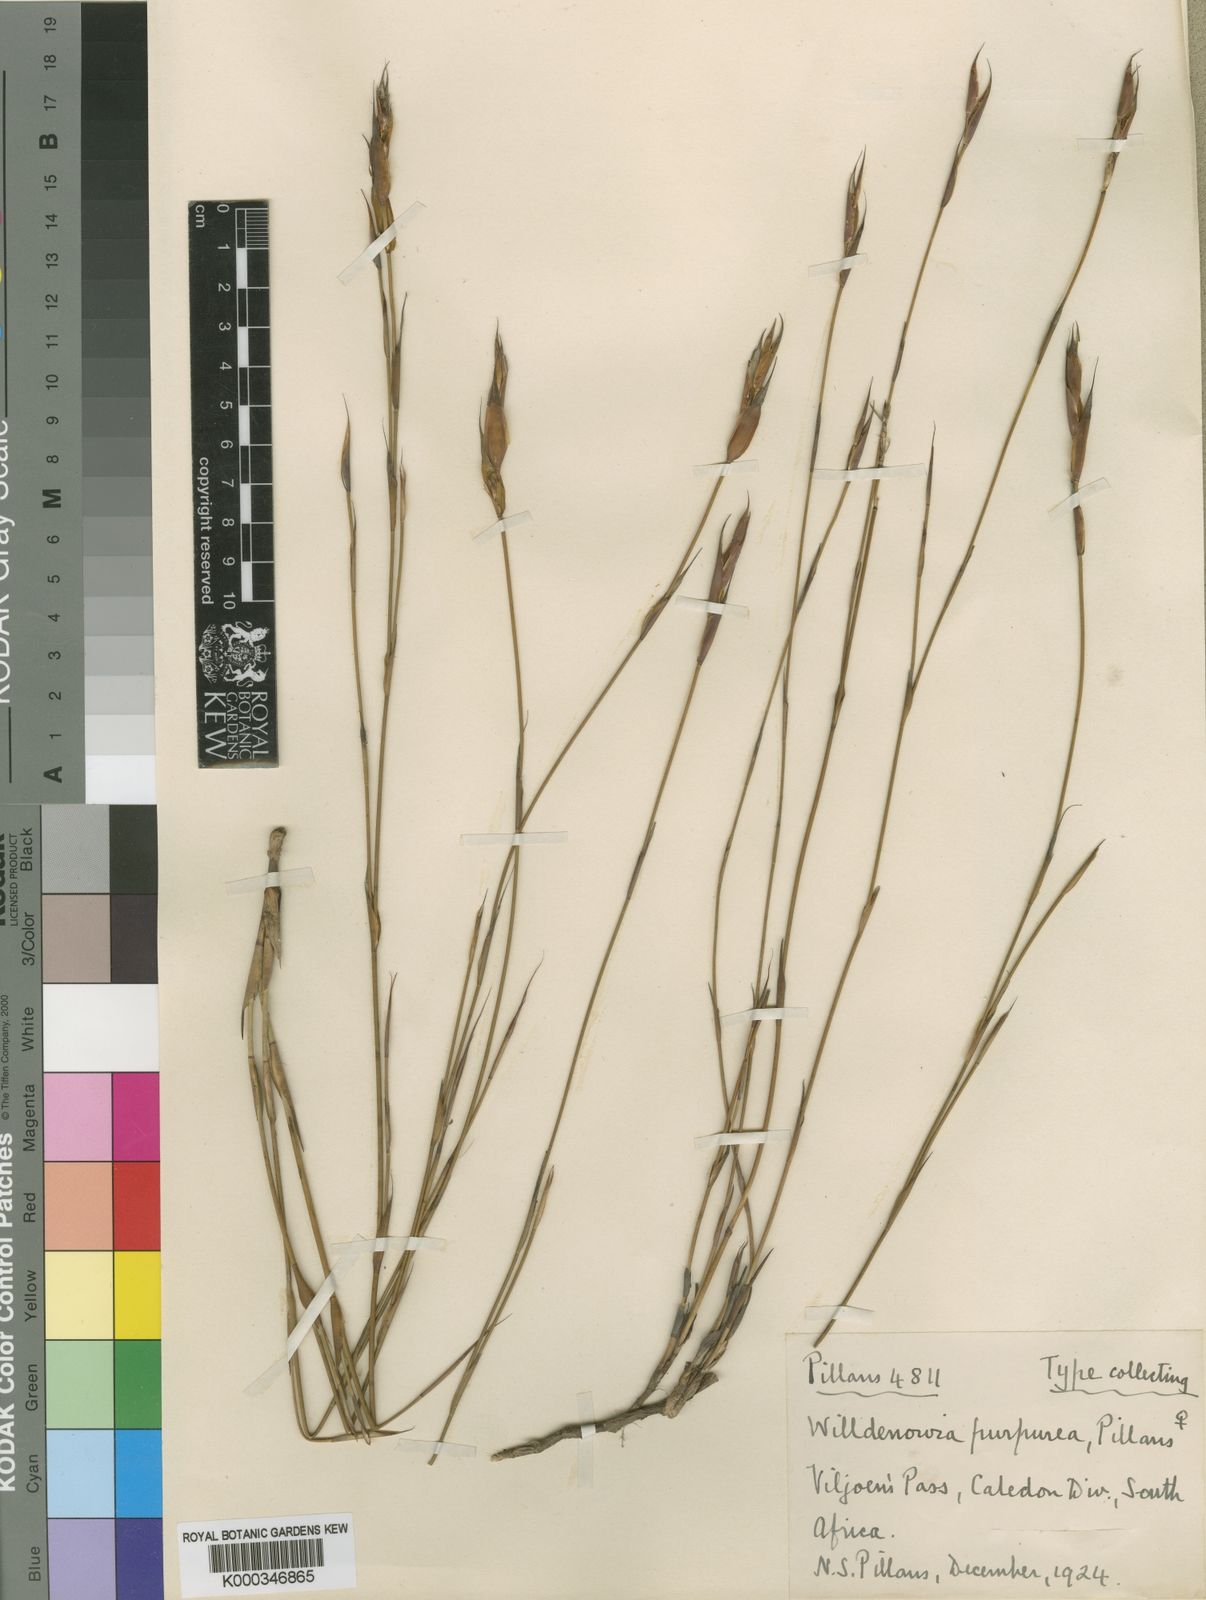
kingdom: Plantae
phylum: Tracheophyta
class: Liliopsida
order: Poales
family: Restionaceae
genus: Willdenowia
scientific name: Willdenowia purpurea
